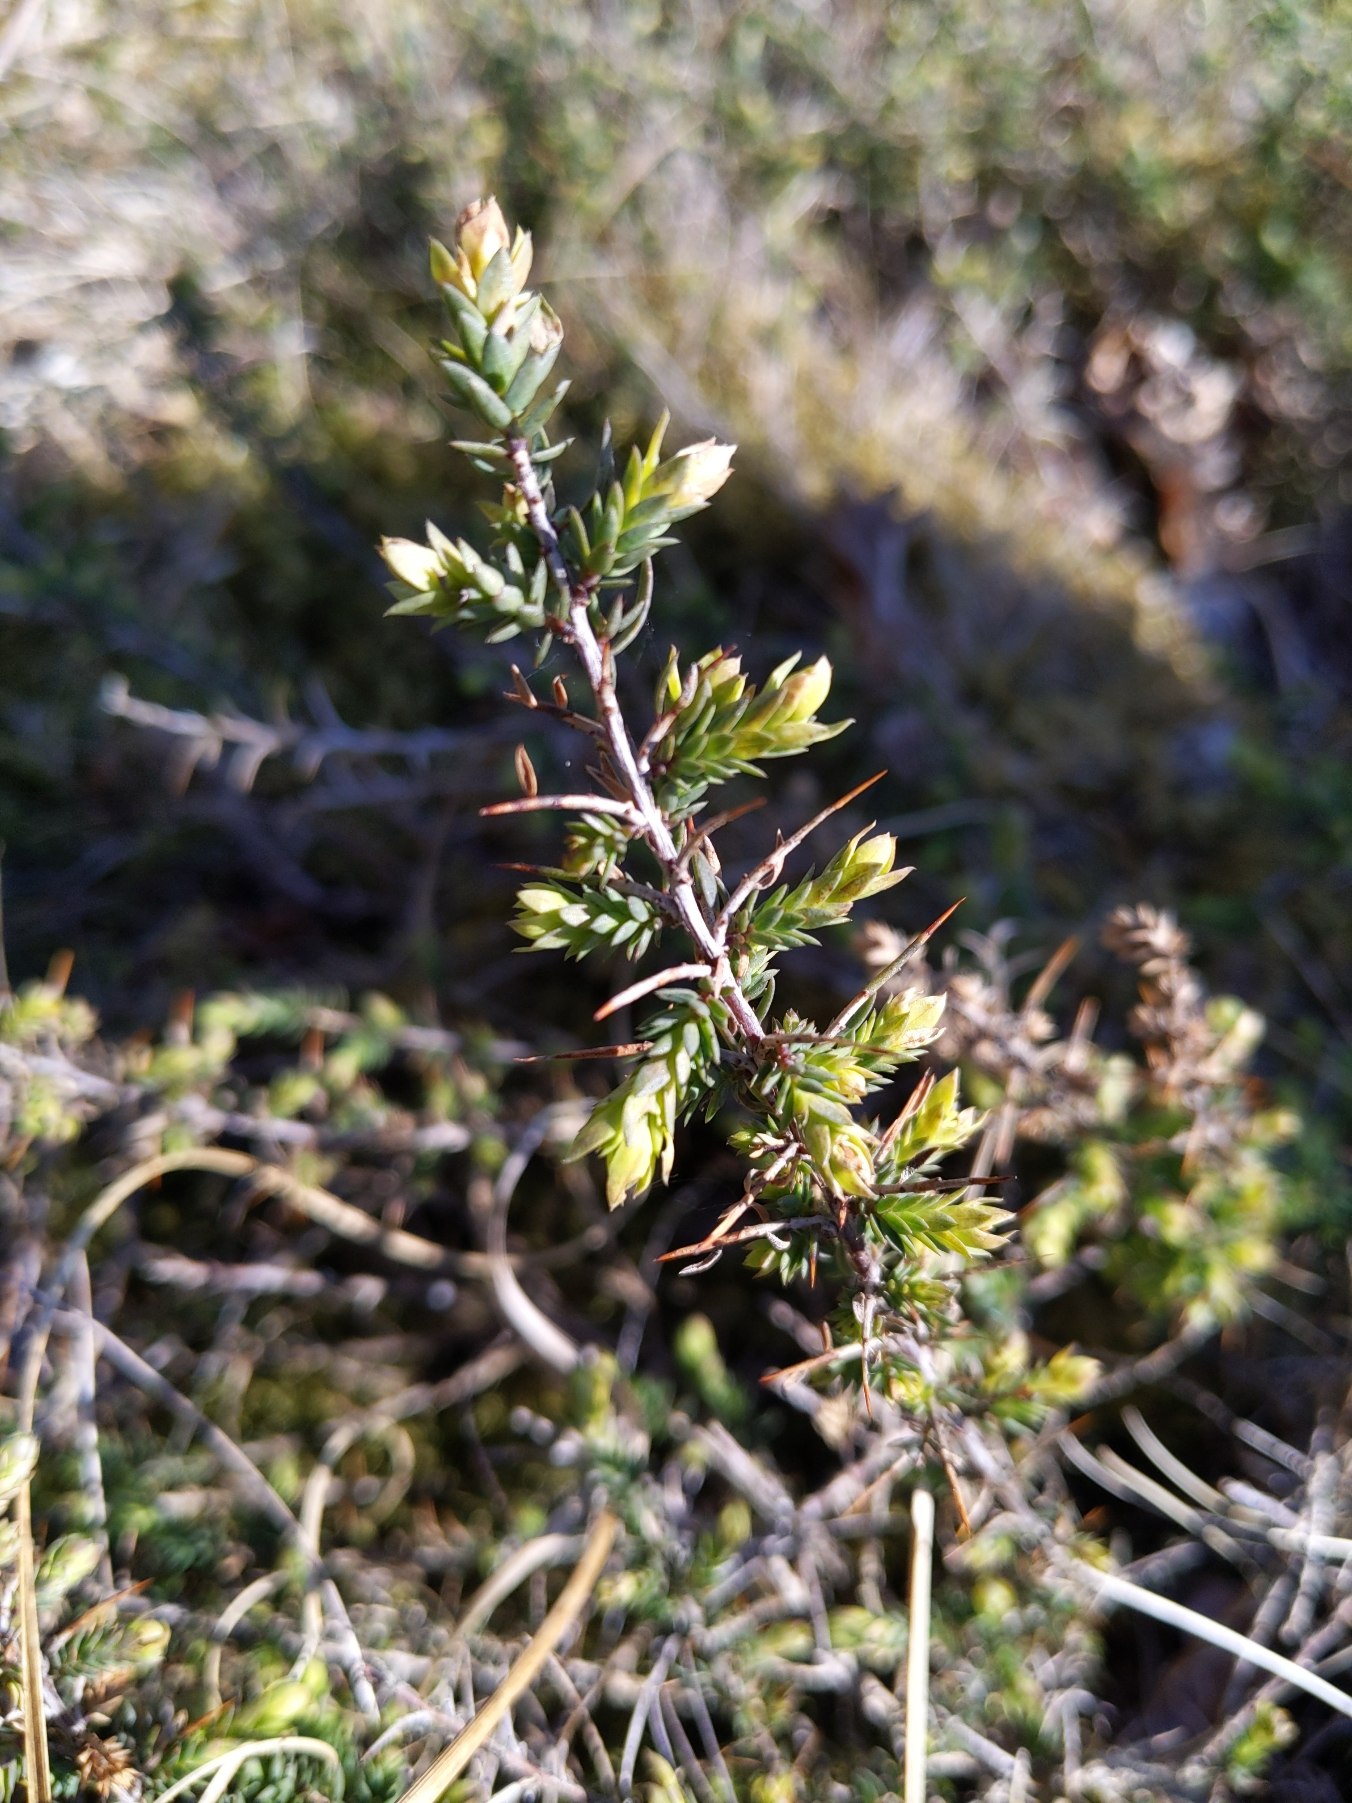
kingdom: Plantae
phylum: Tracheophyta
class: Magnoliopsida
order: Fabales
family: Fabaceae
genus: Genista
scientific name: Genista anglica
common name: Engelsk visse
